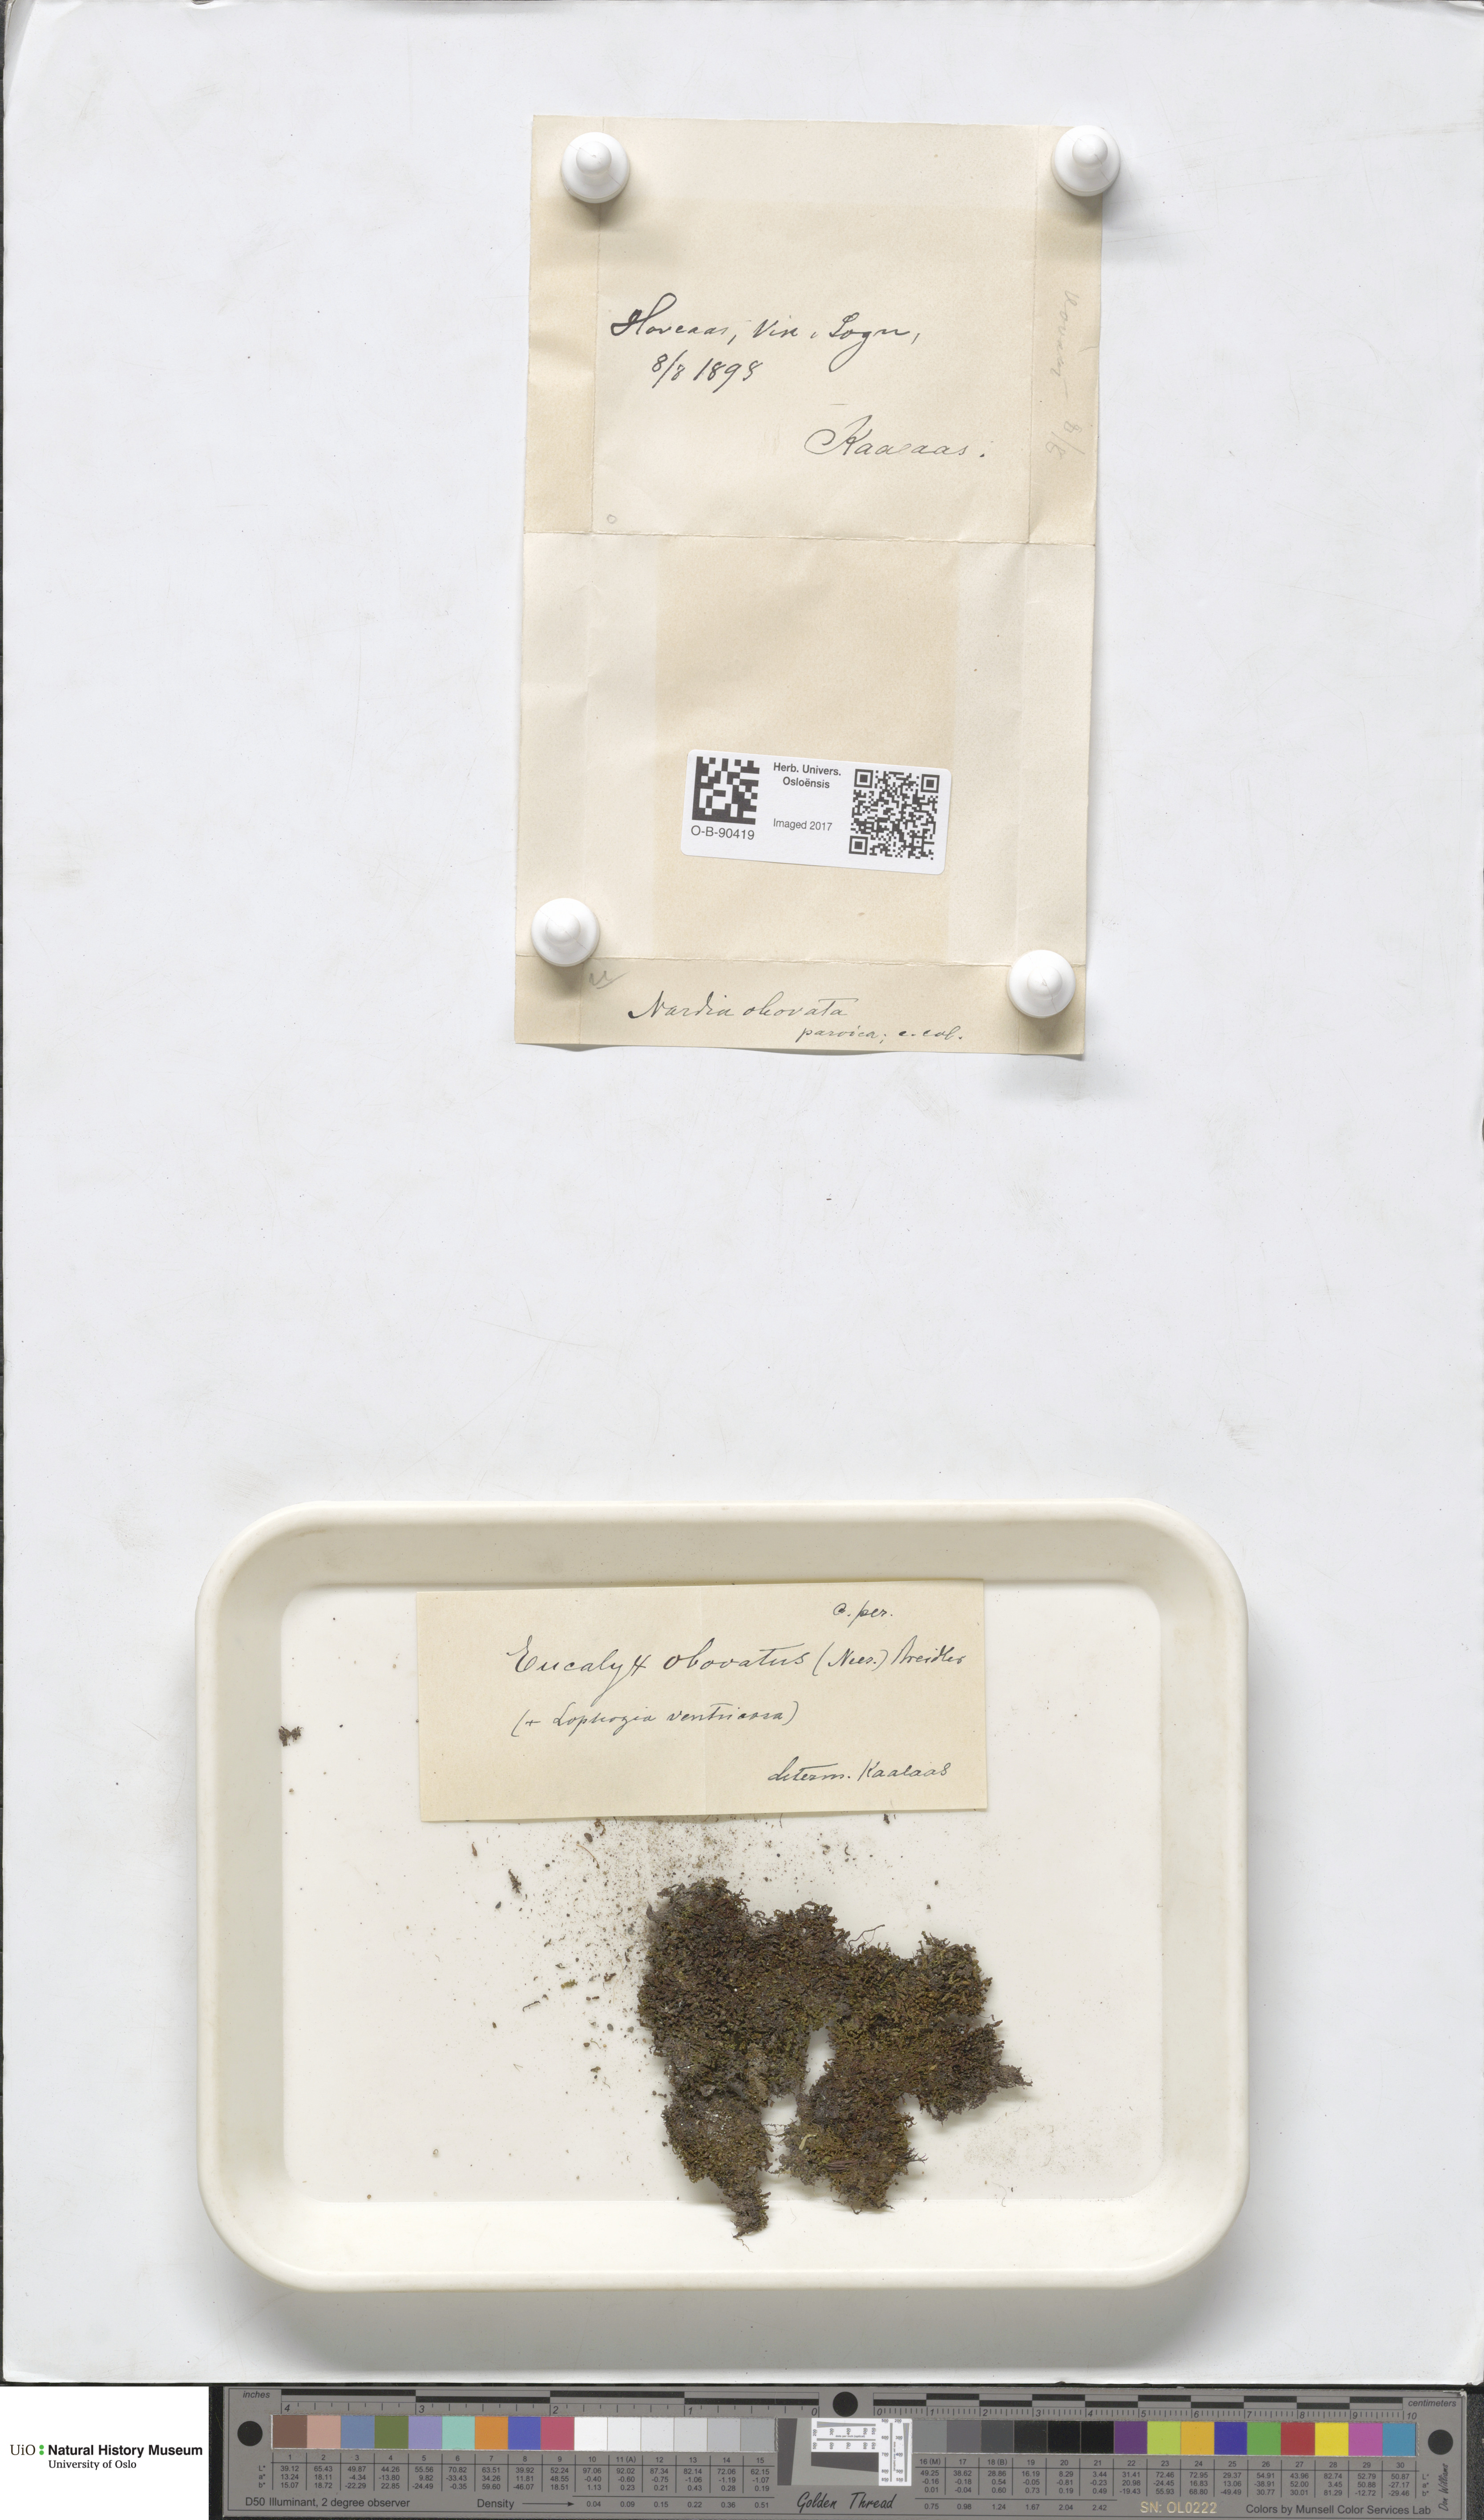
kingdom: Plantae
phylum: Marchantiophyta
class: Jungermanniopsida
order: Jungermanniales
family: Solenostomataceae
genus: Solenostoma
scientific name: Solenostoma obovatum
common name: Egg flapwort
